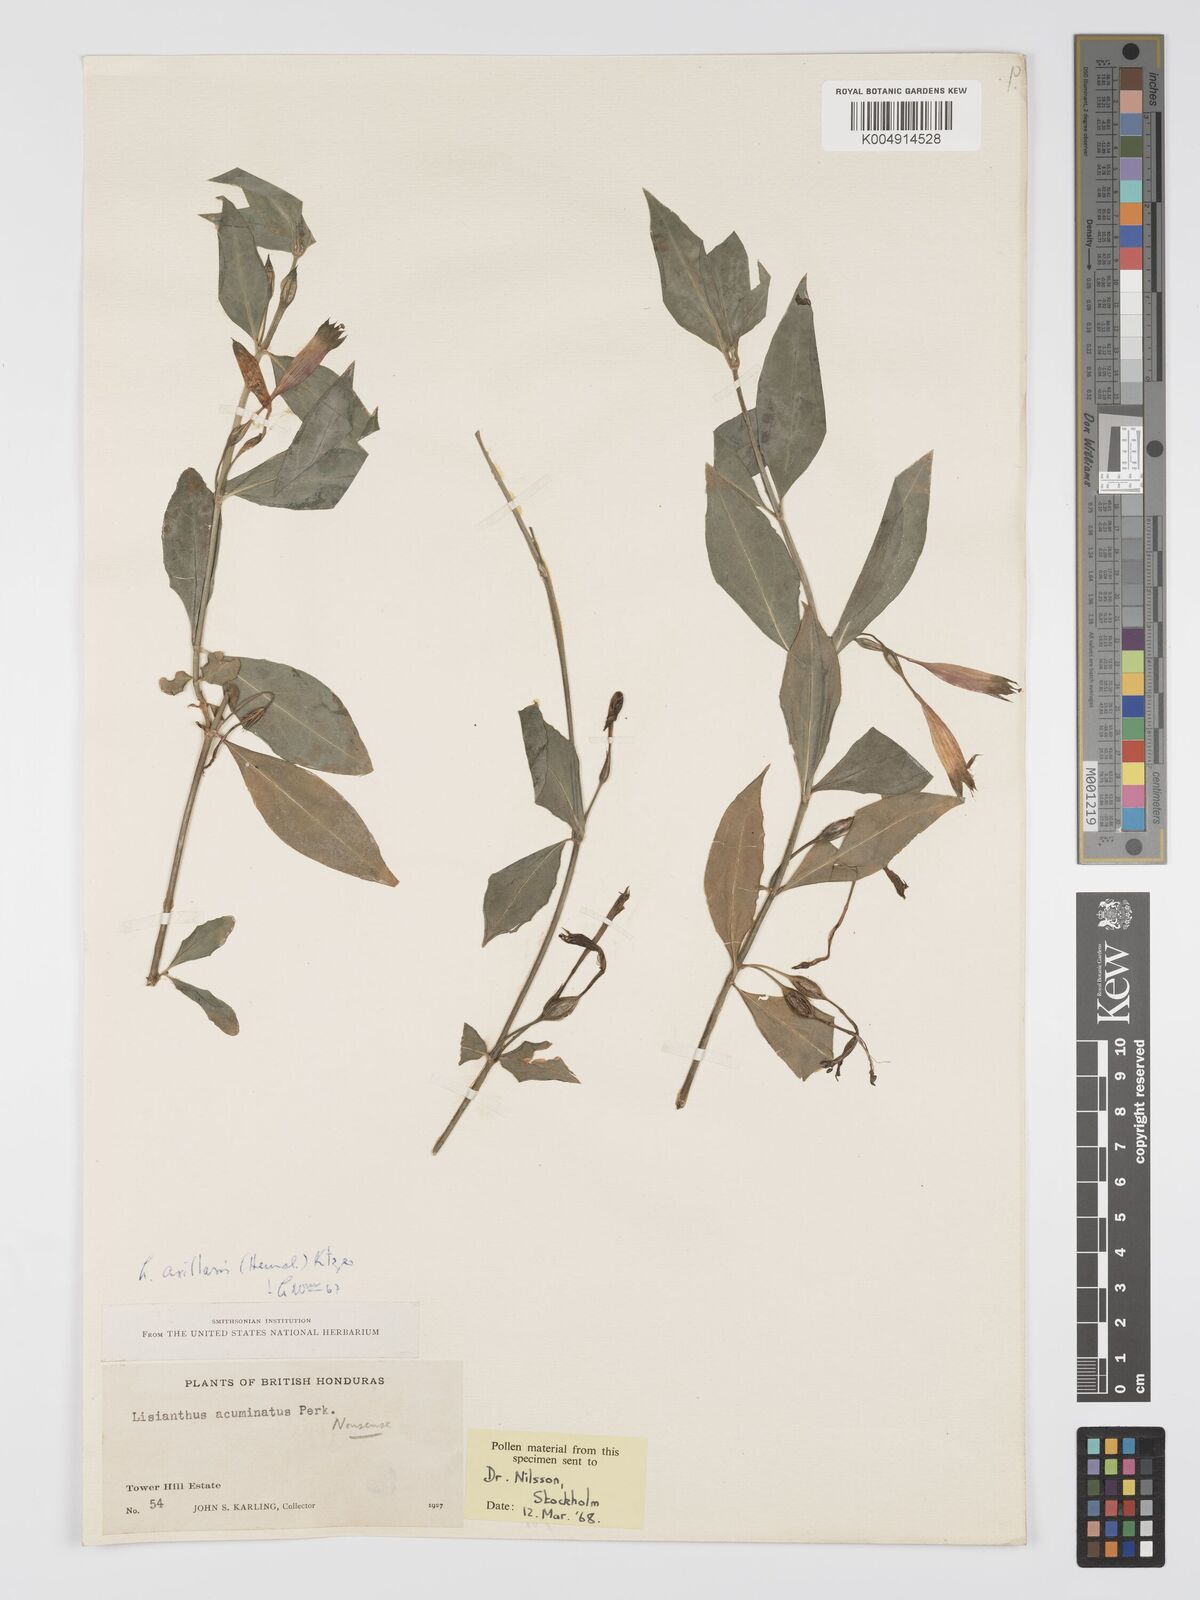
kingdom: Plantae
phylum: Tracheophyta
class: Magnoliopsida
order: Gentianales
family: Gentianaceae
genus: Lisianthius
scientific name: Lisianthius
